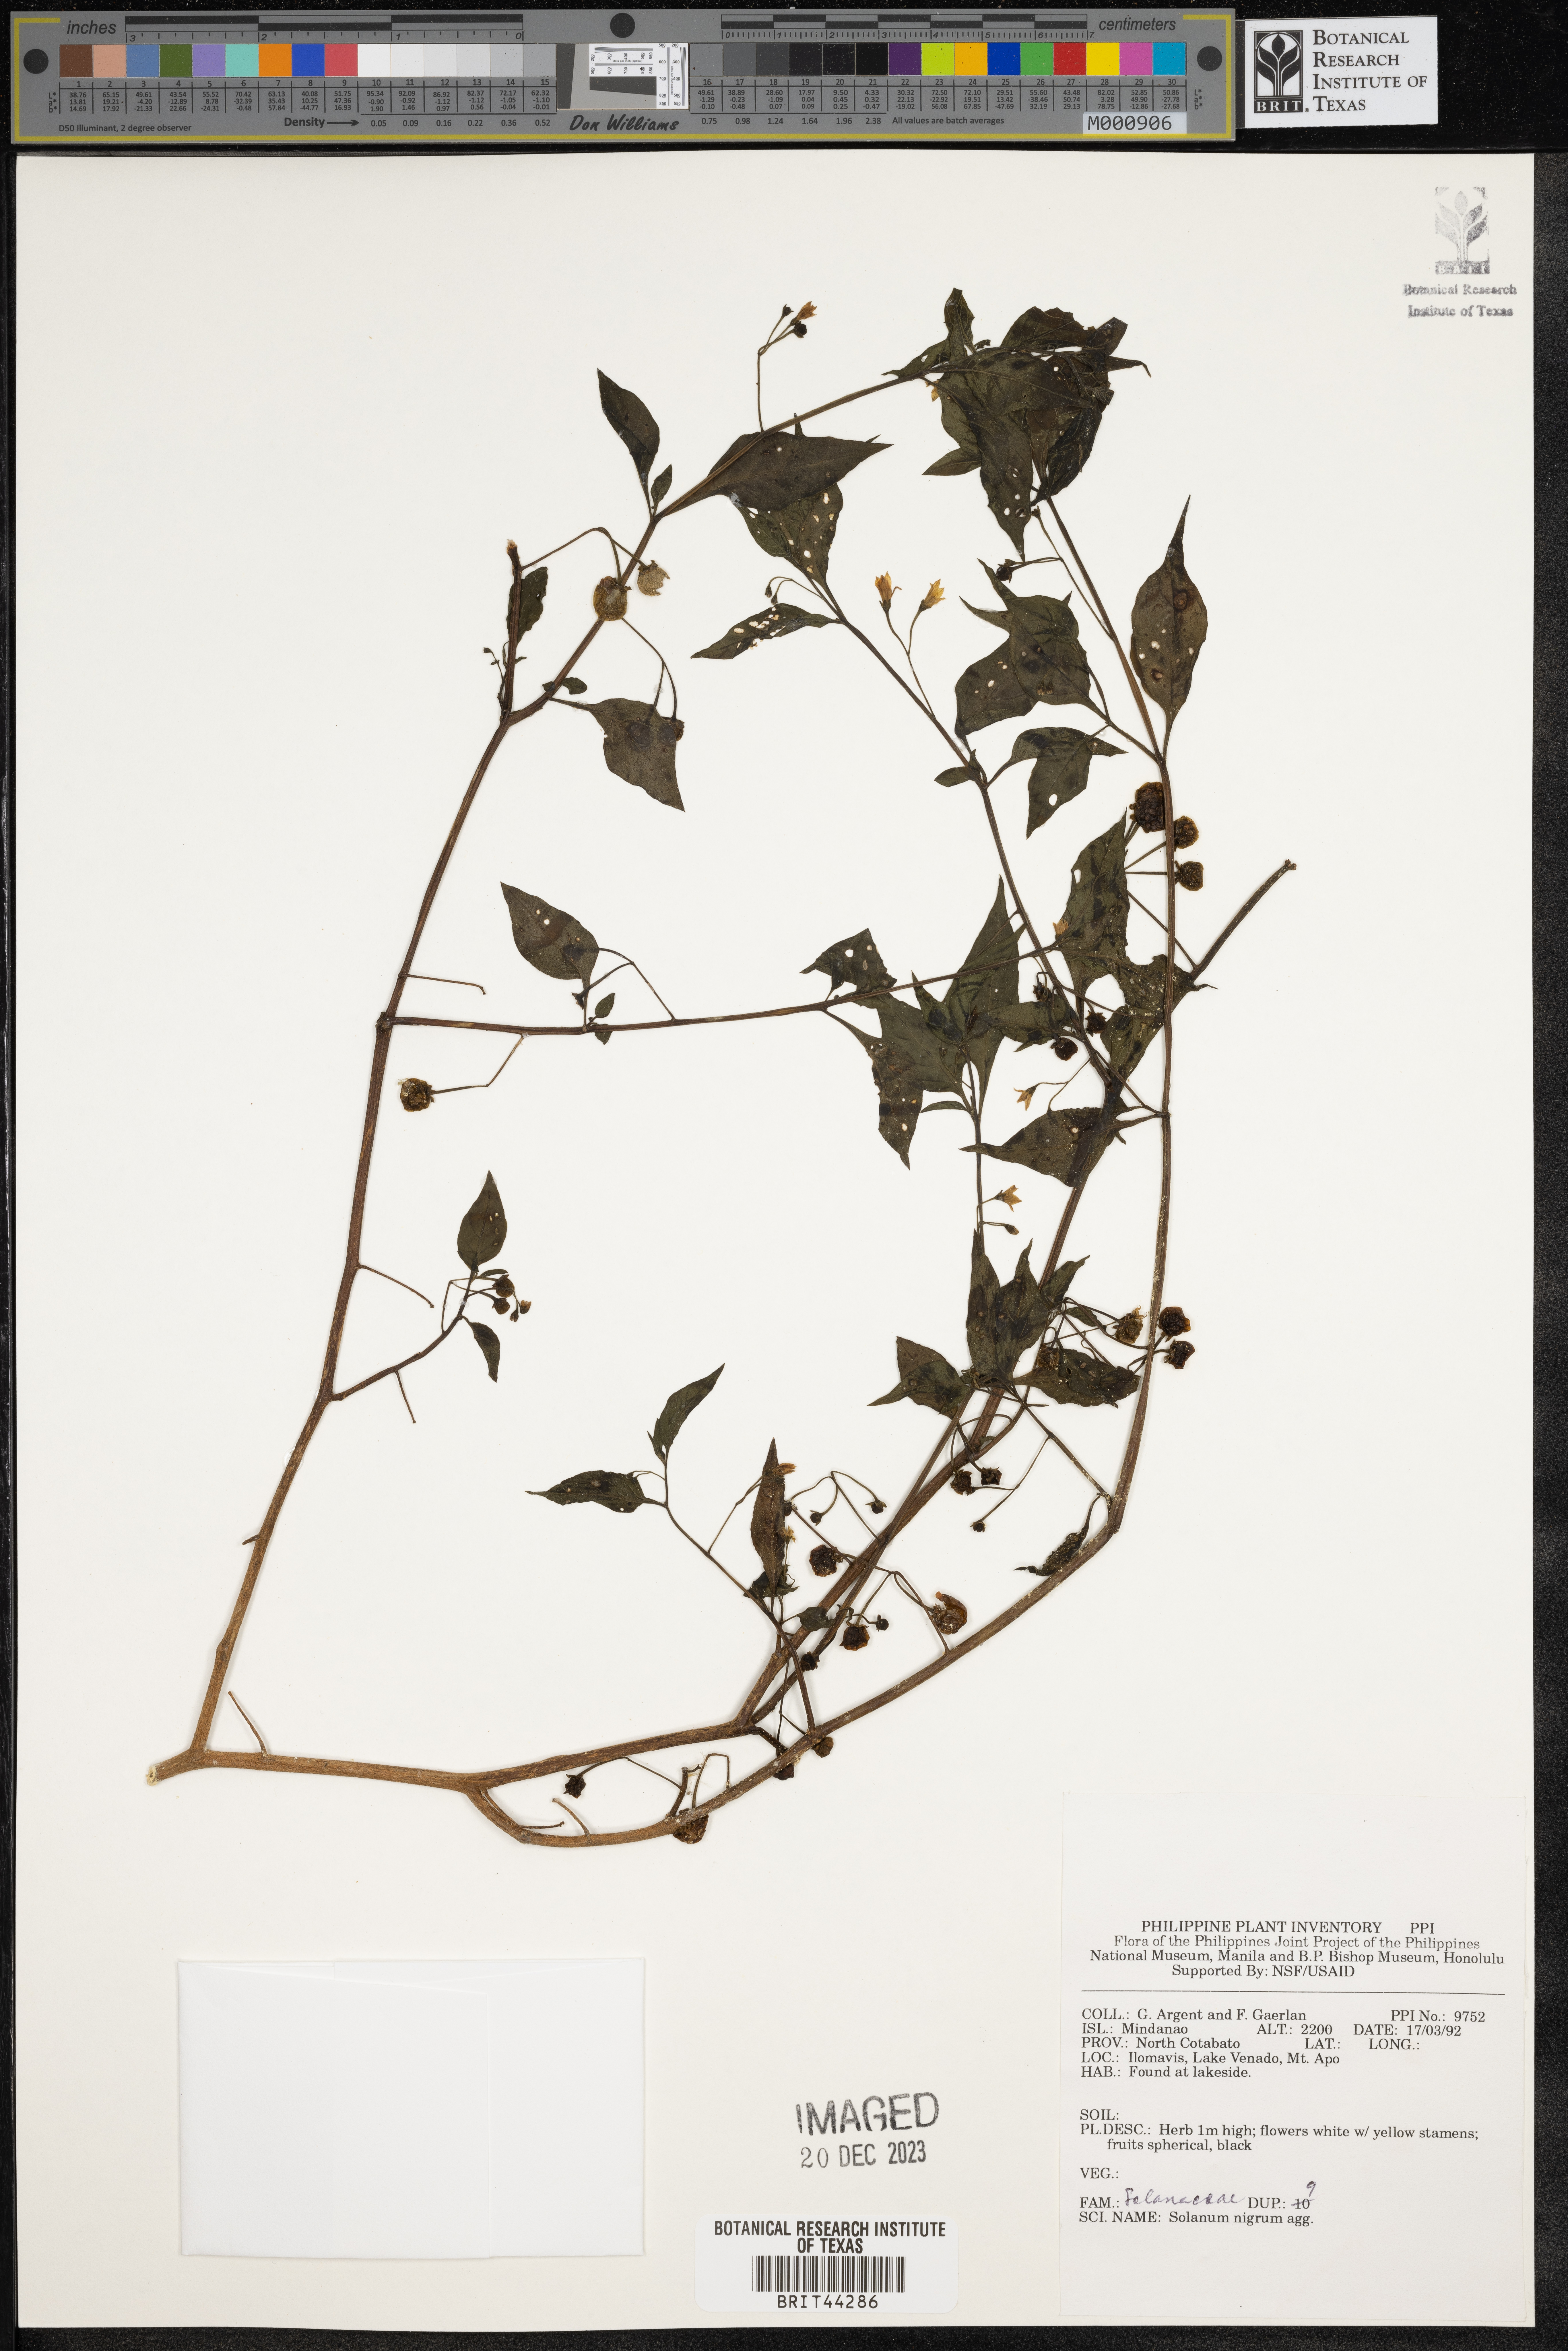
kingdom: Plantae
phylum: Tracheophyta
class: Magnoliopsida
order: Solanales
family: Solanaceae
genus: Solanum
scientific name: Solanum nigrum
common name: Black nightshade
